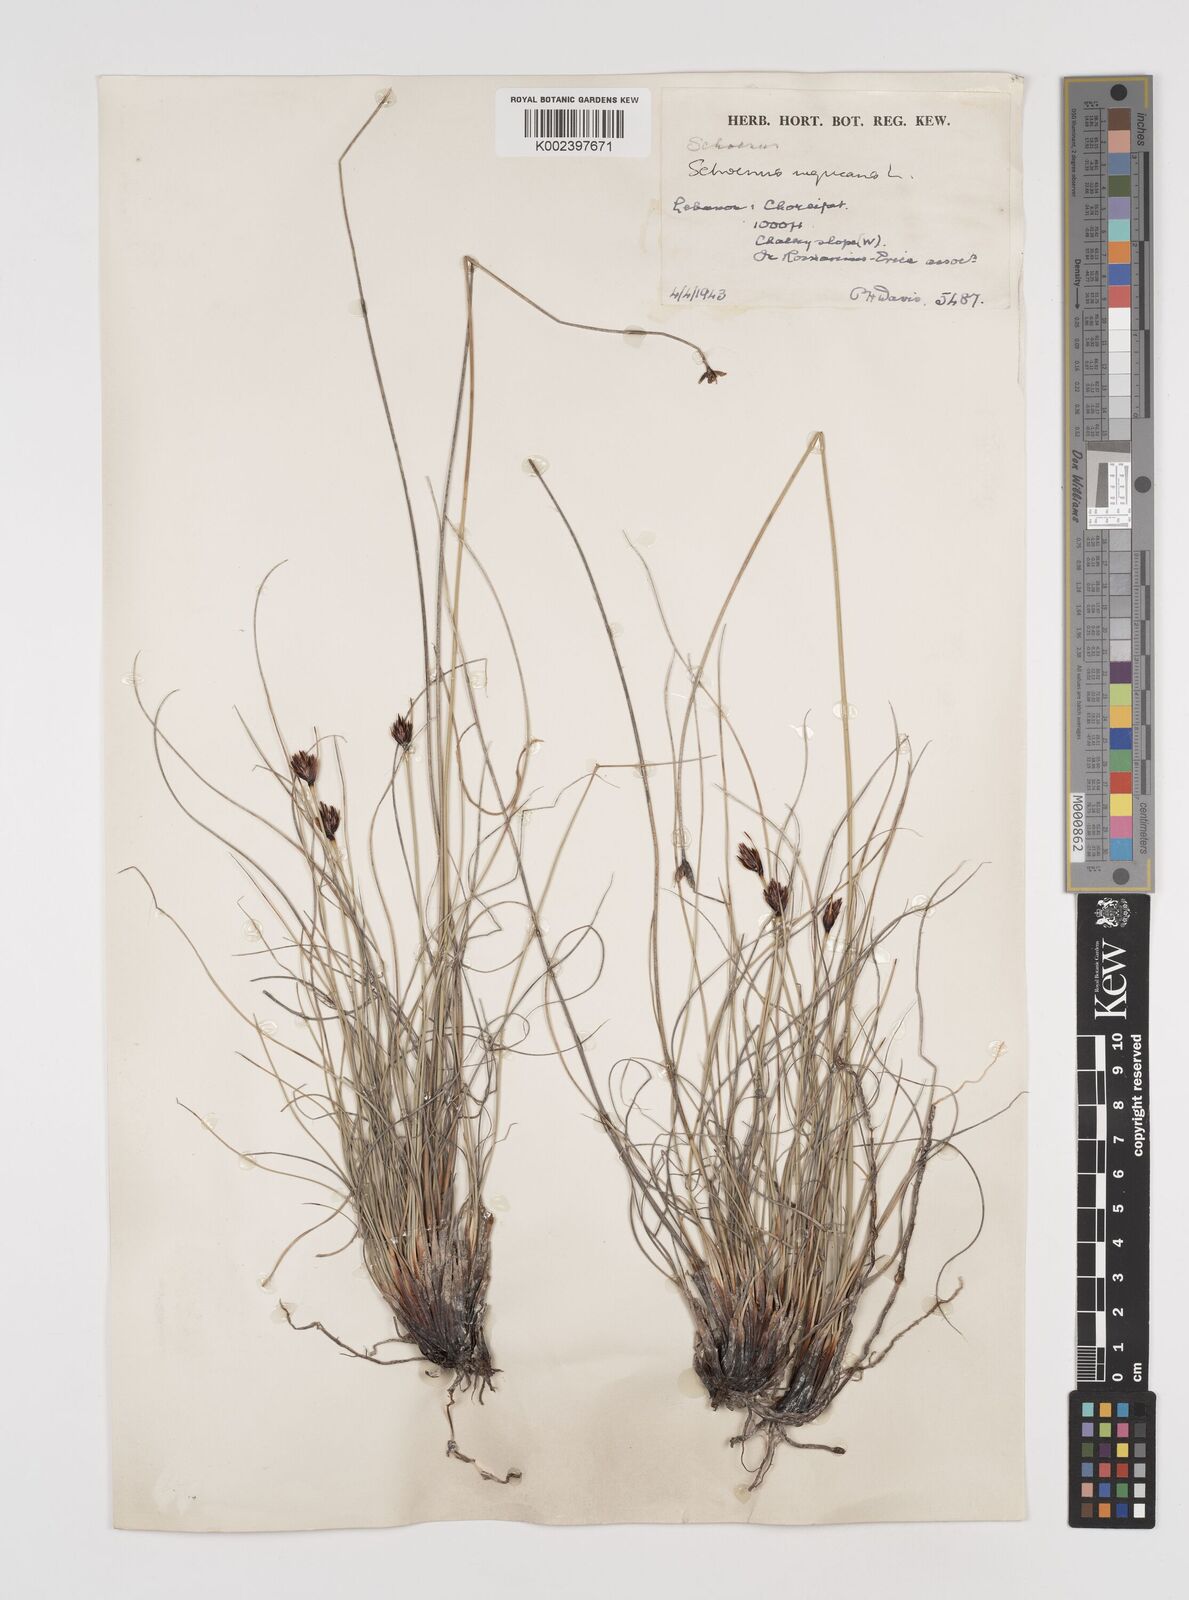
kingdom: Plantae
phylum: Tracheophyta
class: Liliopsida
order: Poales
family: Cyperaceae
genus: Schoenus
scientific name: Schoenus nigricans
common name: Black bog-rush
